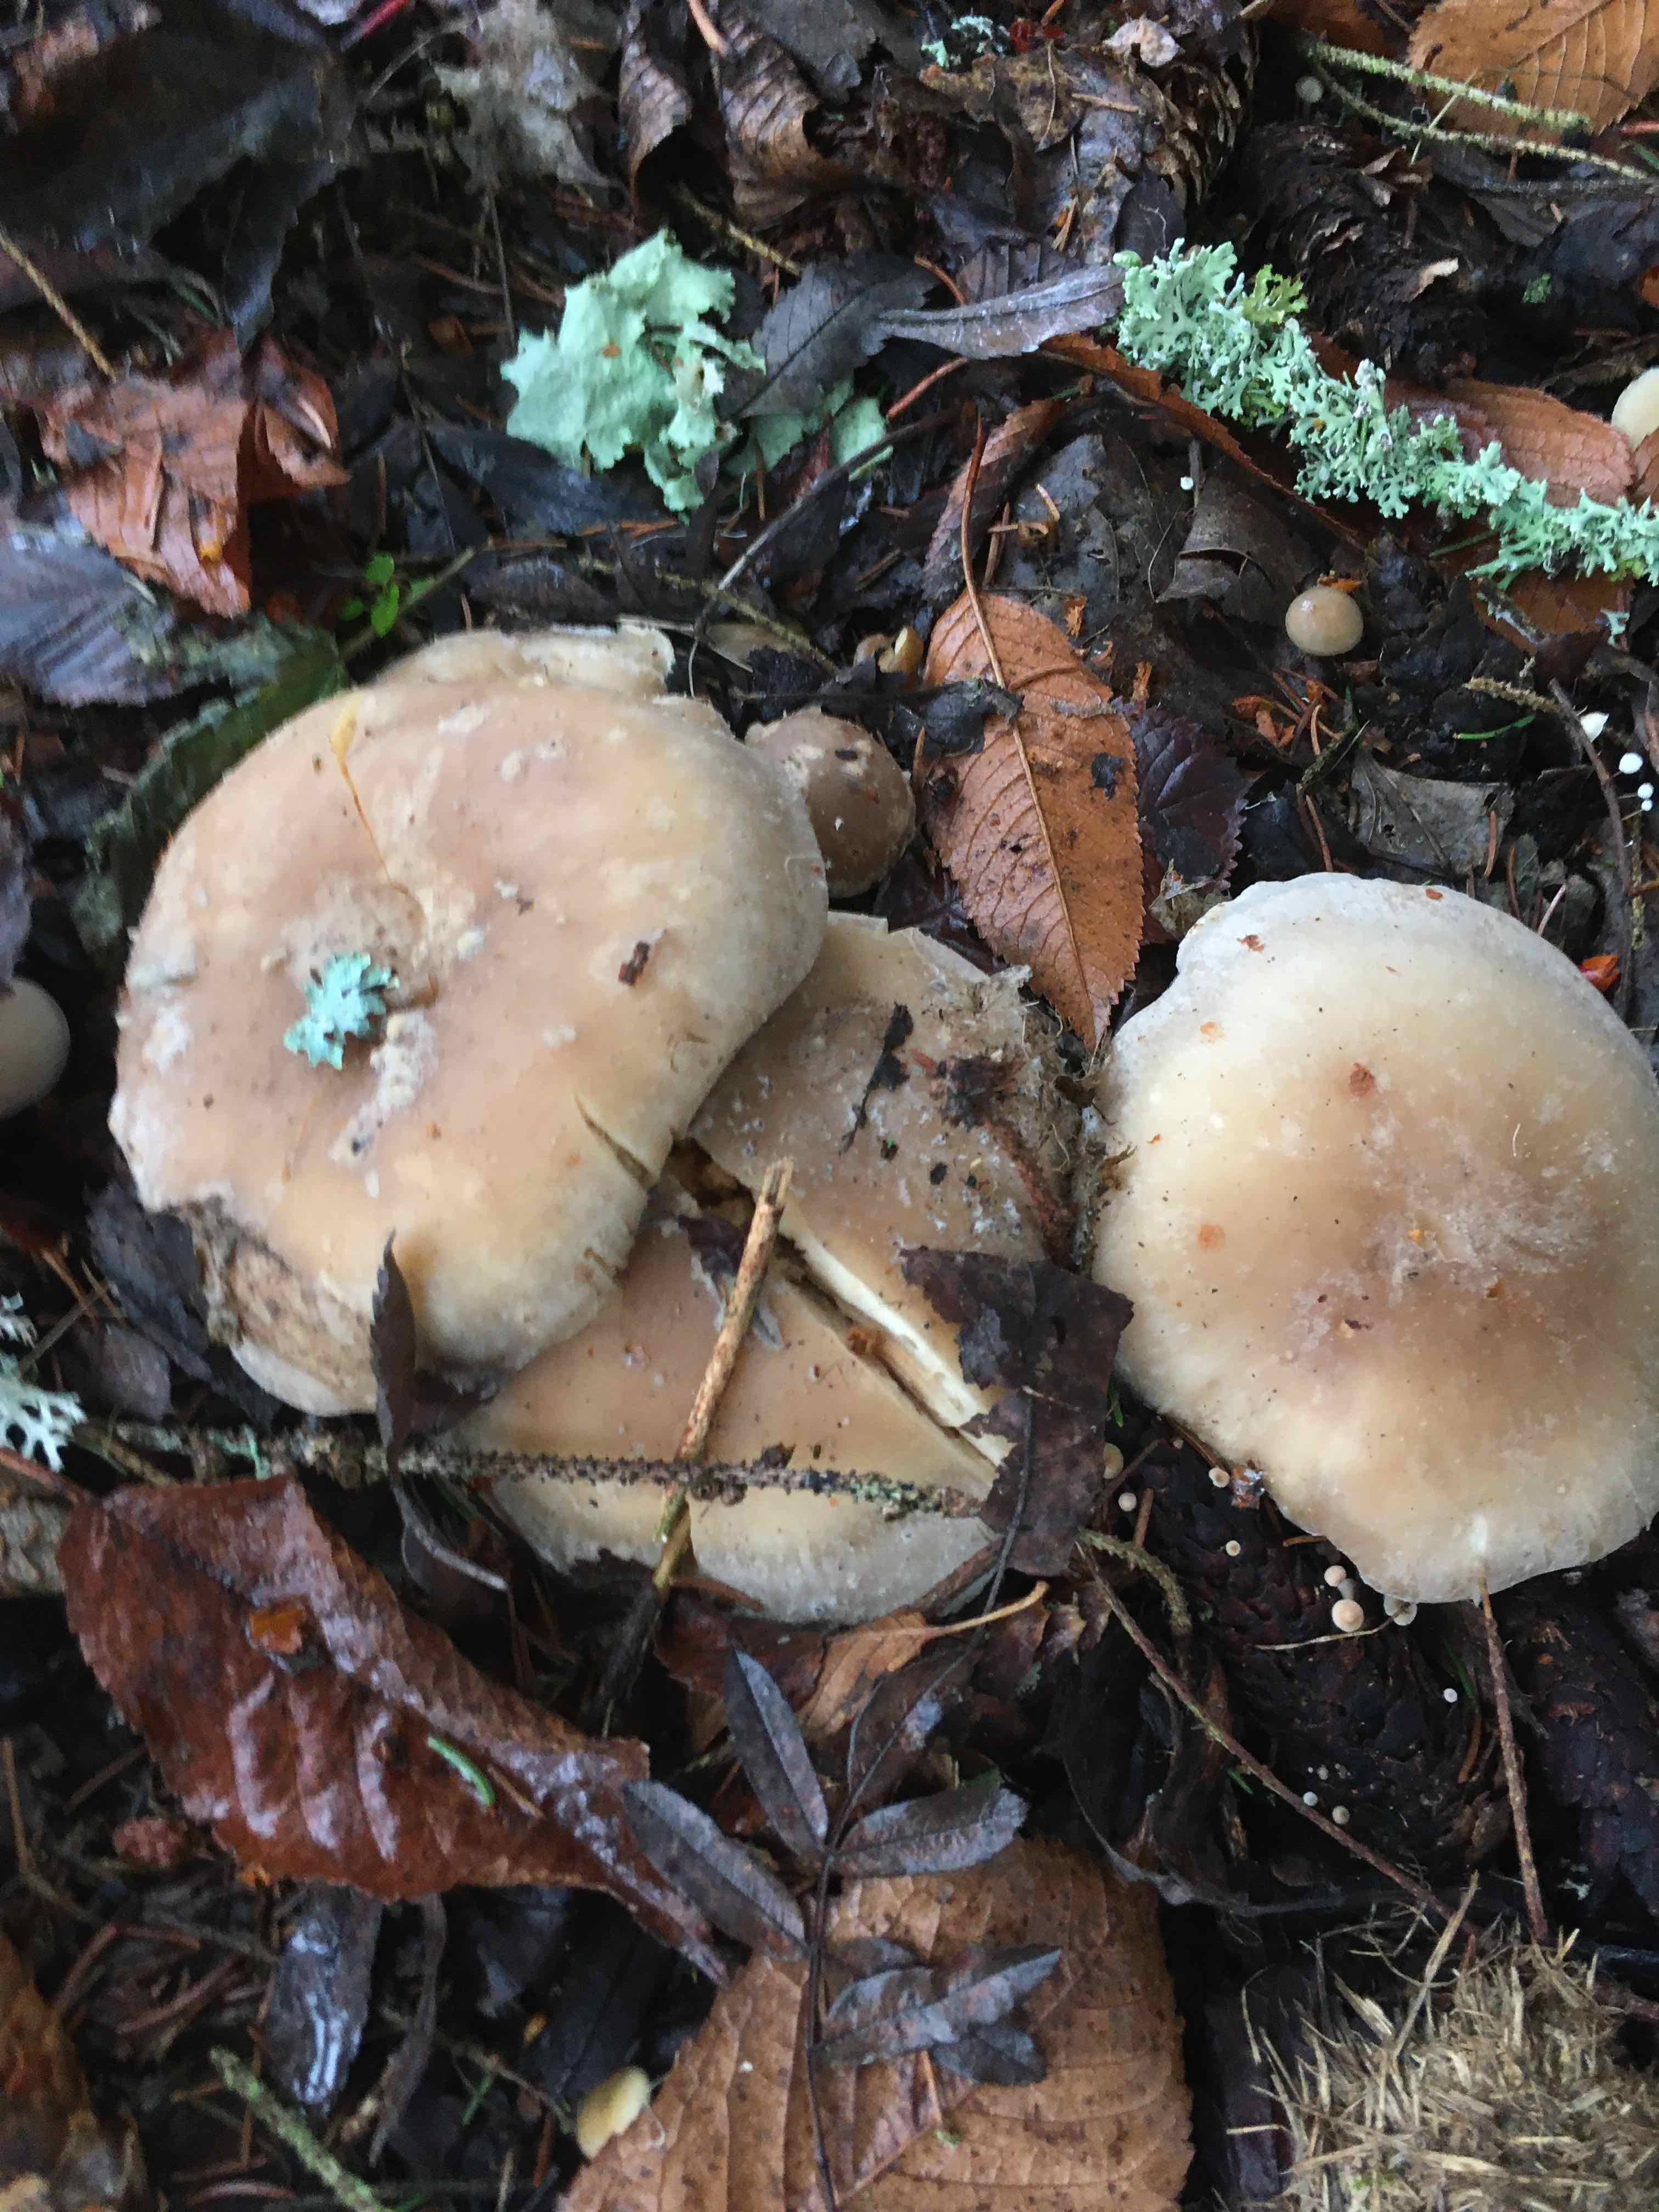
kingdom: Fungi
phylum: Basidiomycota
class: Agaricomycetes
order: Agaricales
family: Tricholomataceae
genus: Clitocybe
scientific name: Clitocybe nebularis
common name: tåge-tragthat
